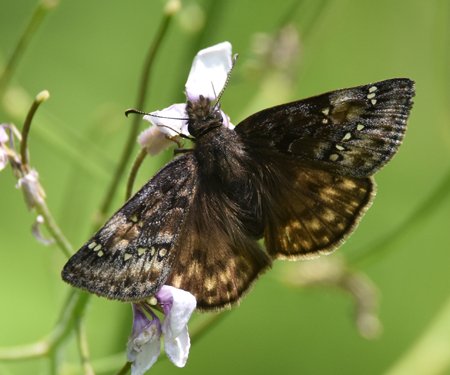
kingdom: Animalia
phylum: Arthropoda
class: Insecta
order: Lepidoptera
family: Hesperiidae
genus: Gesta
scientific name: Gesta
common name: Juvenal's Duskywing
